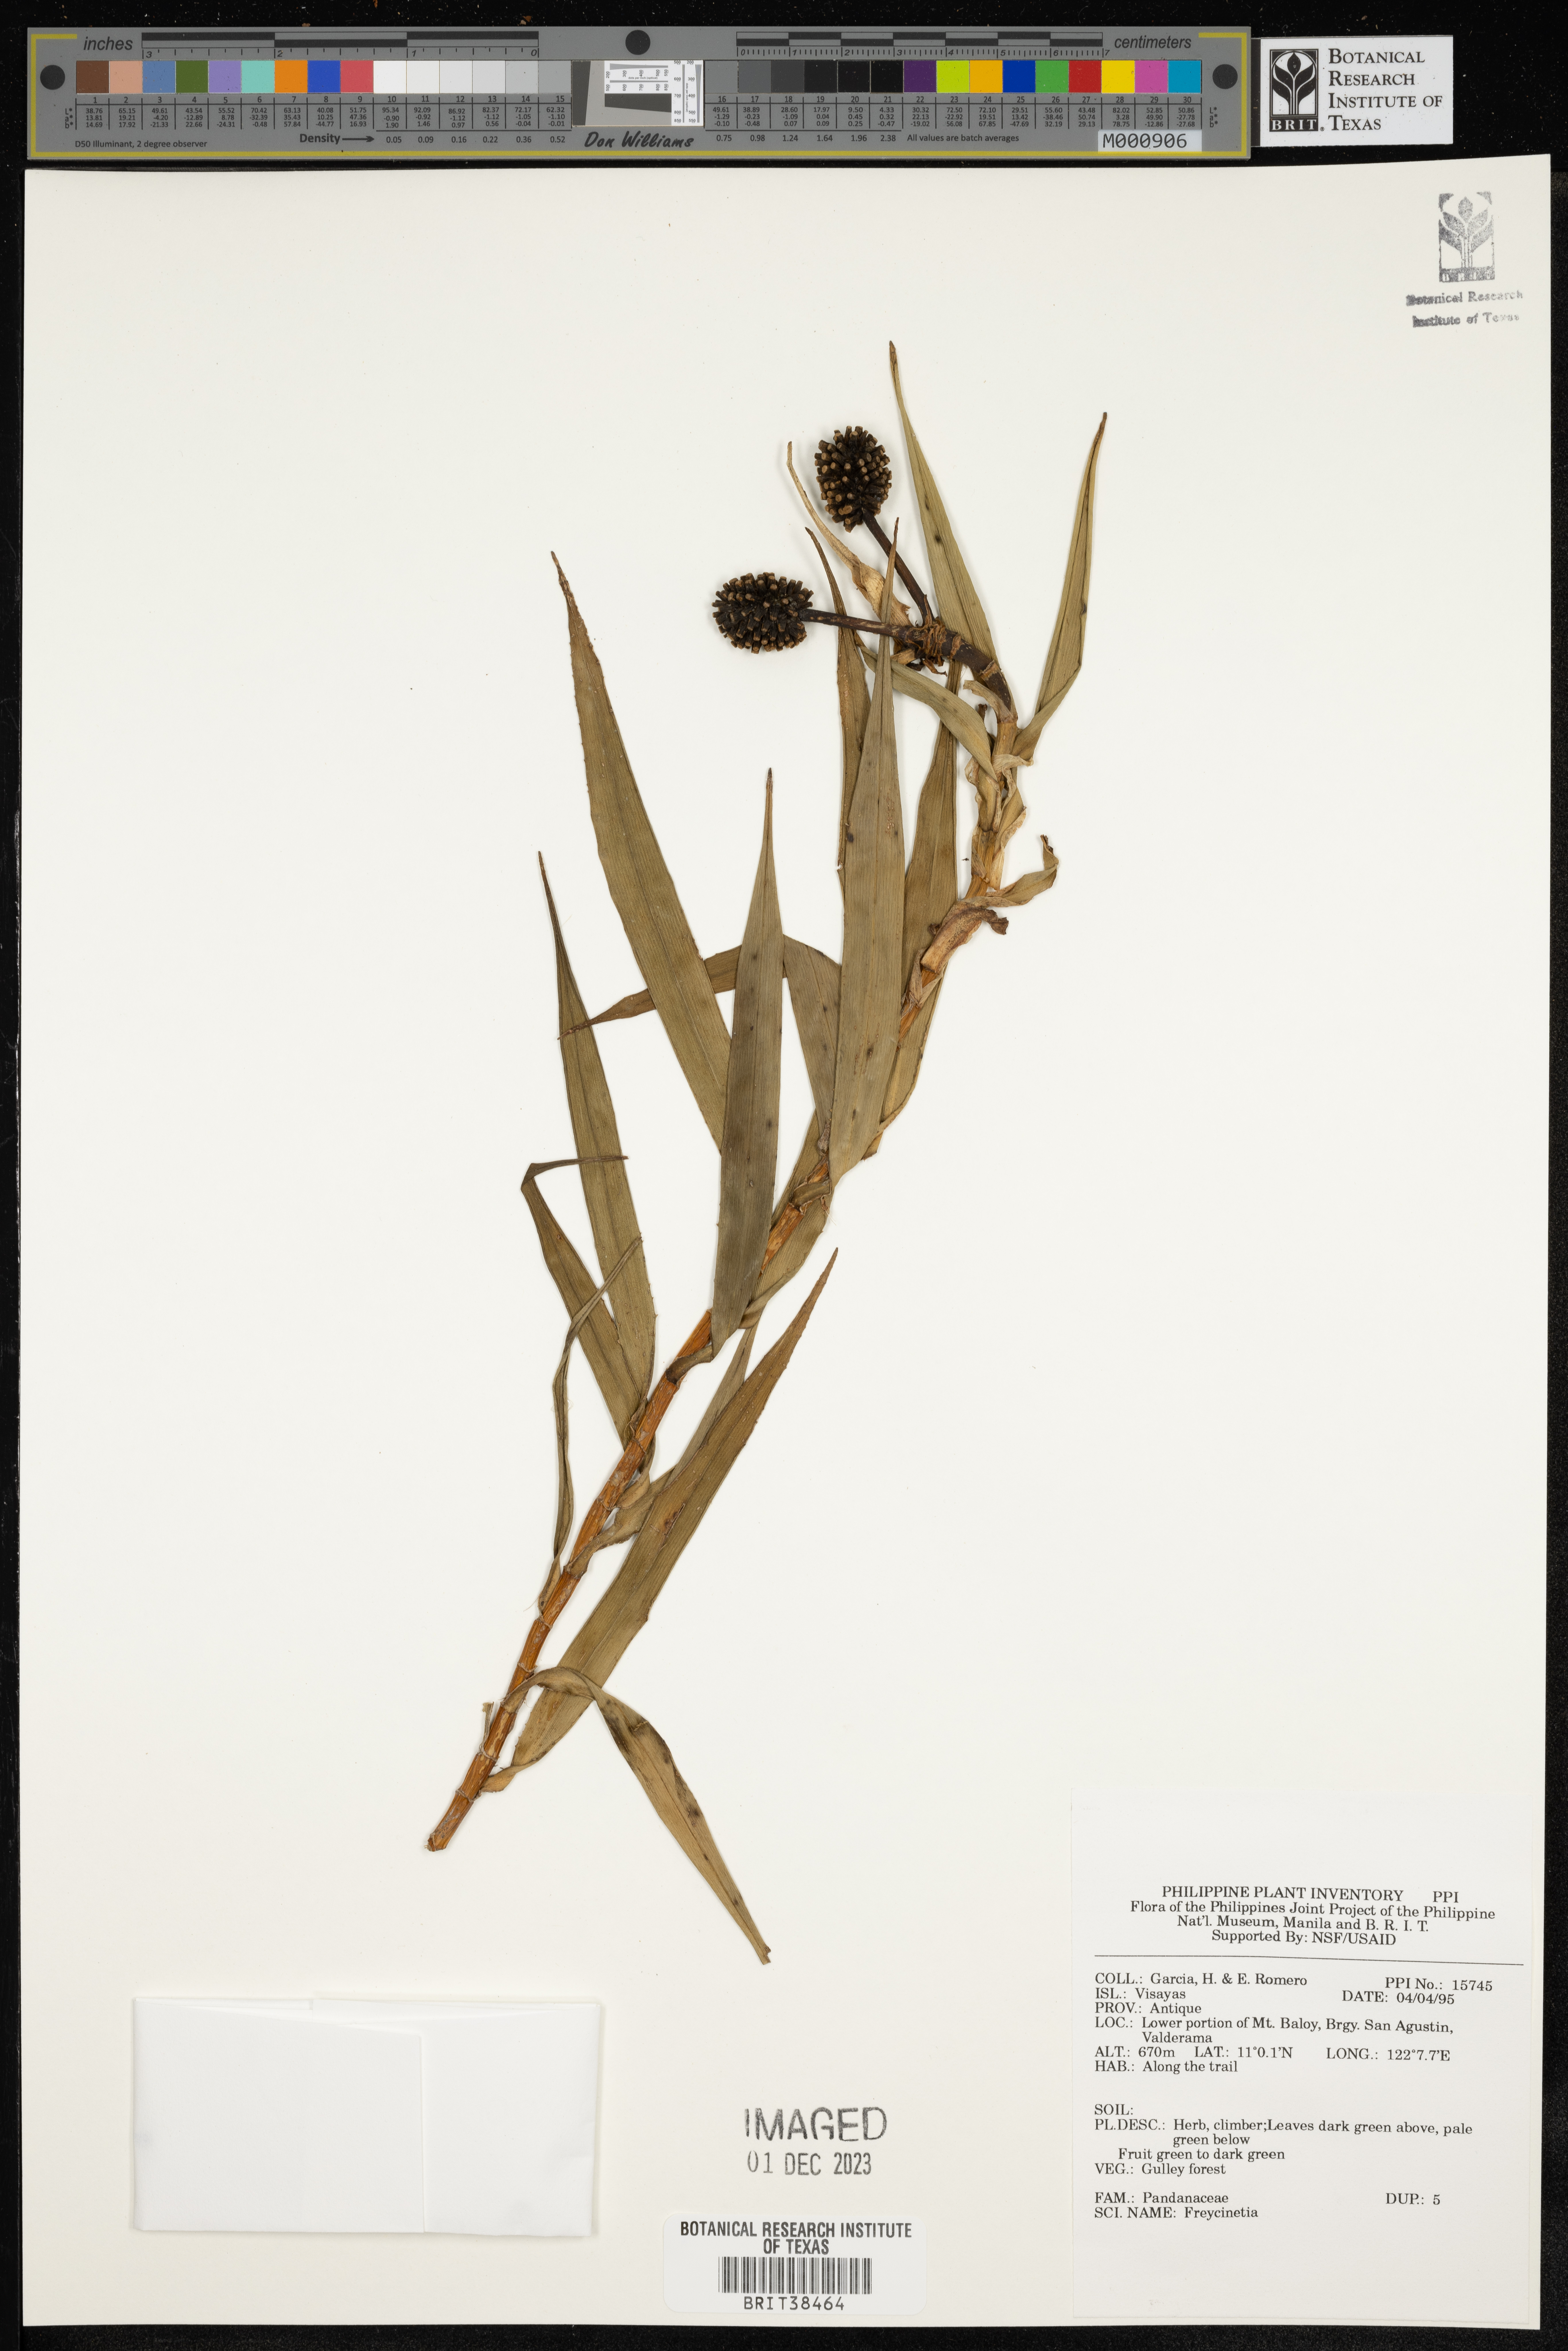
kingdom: Plantae
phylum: Tracheophyta
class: Liliopsida
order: Pandanales
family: Pandanaceae
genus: Freycinetia
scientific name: Freycinetia
